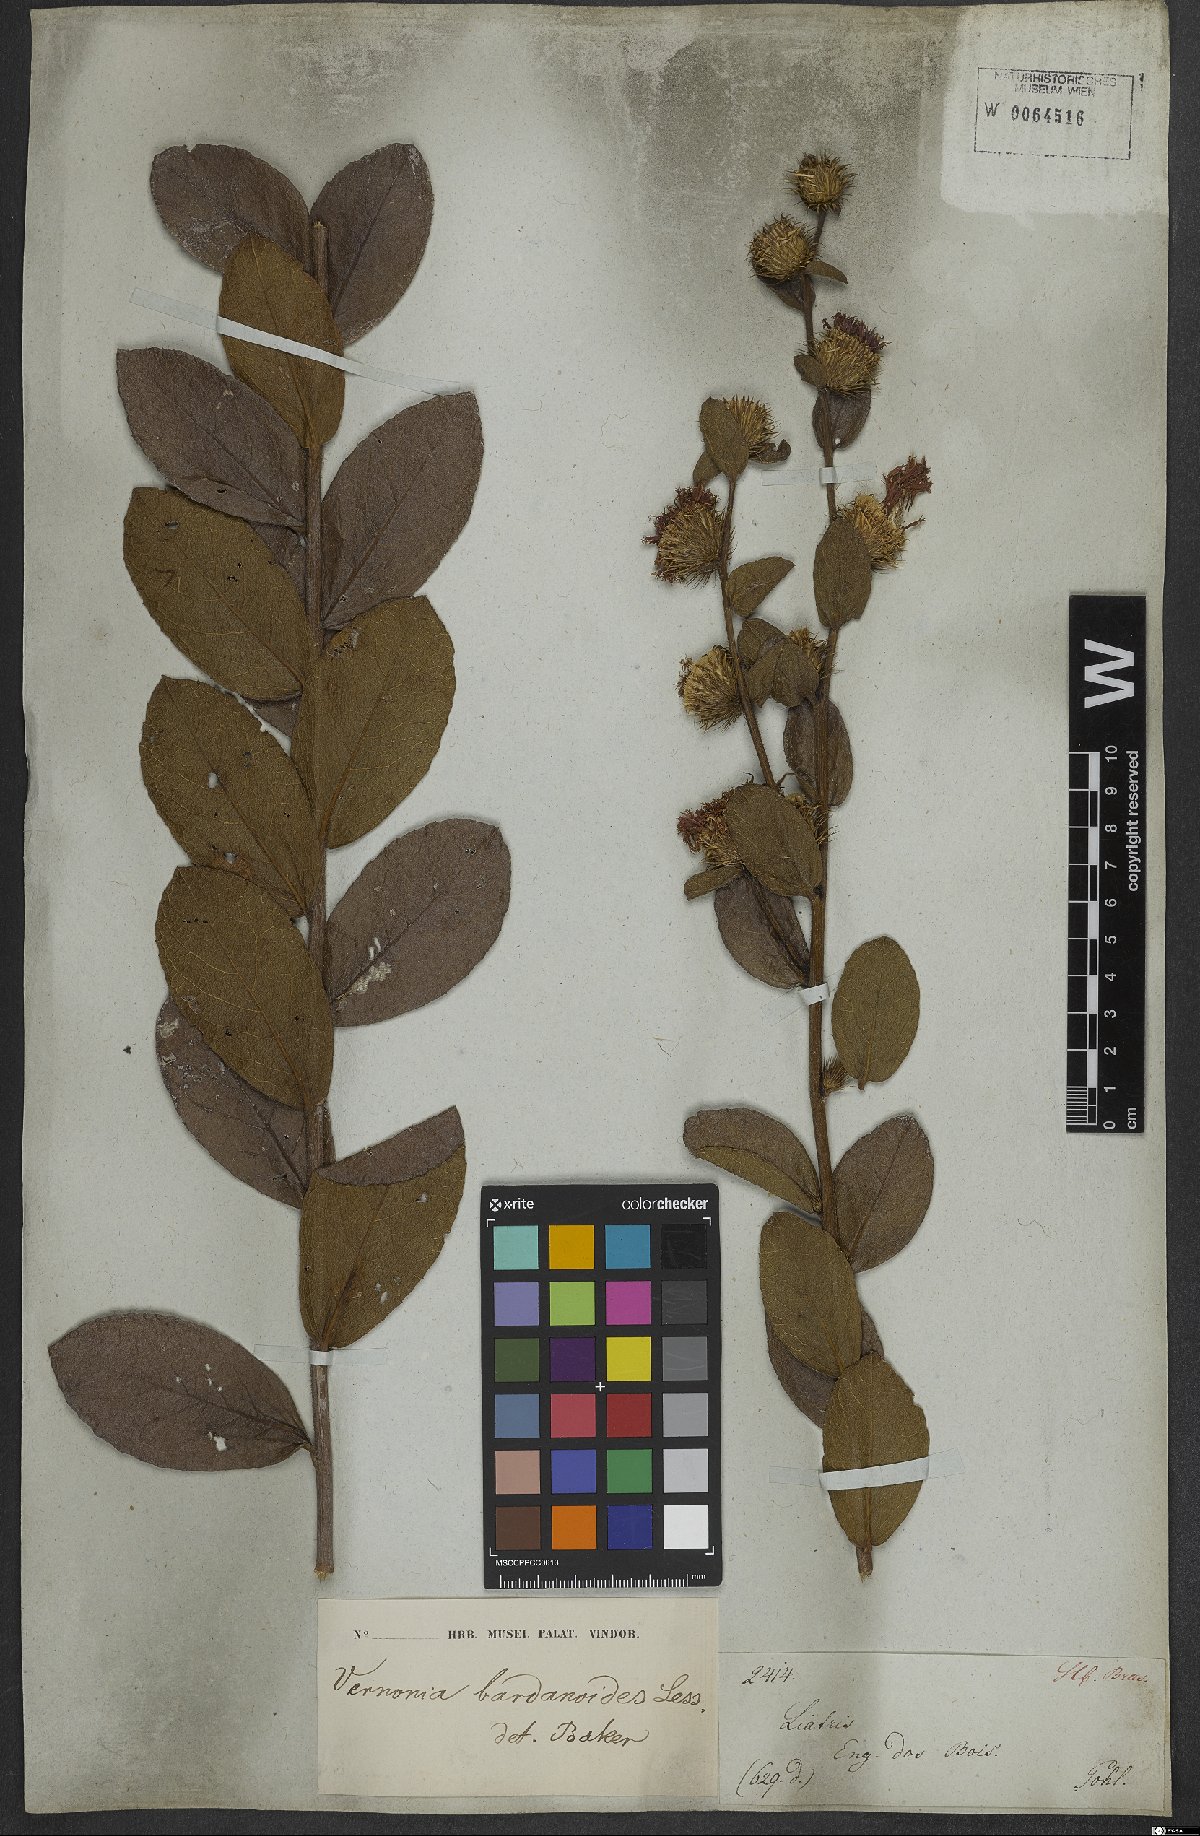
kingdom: Plantae
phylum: Tracheophyta
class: Magnoliopsida
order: Asterales
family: Asteraceae
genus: Lessingianthus
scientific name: Lessingianthus bardanioides
